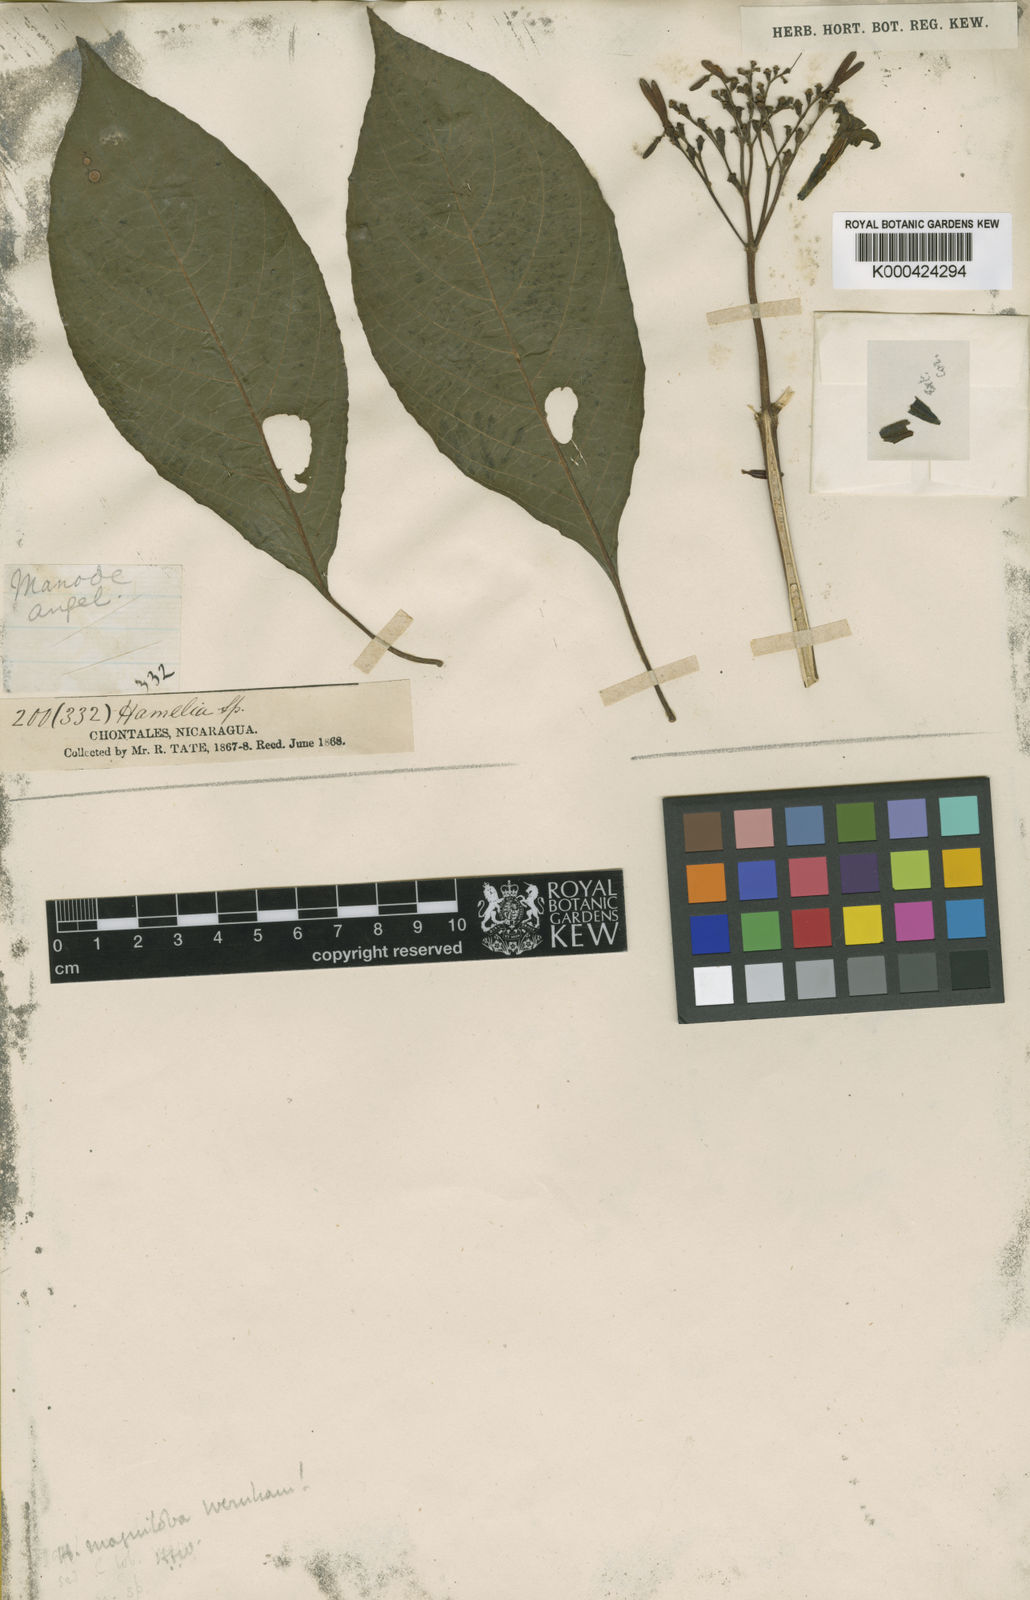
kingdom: Plantae
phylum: Tracheophyta
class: Magnoliopsida
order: Gentianales
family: Rubiaceae
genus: Hamelia
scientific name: Hamelia xerocarpa
